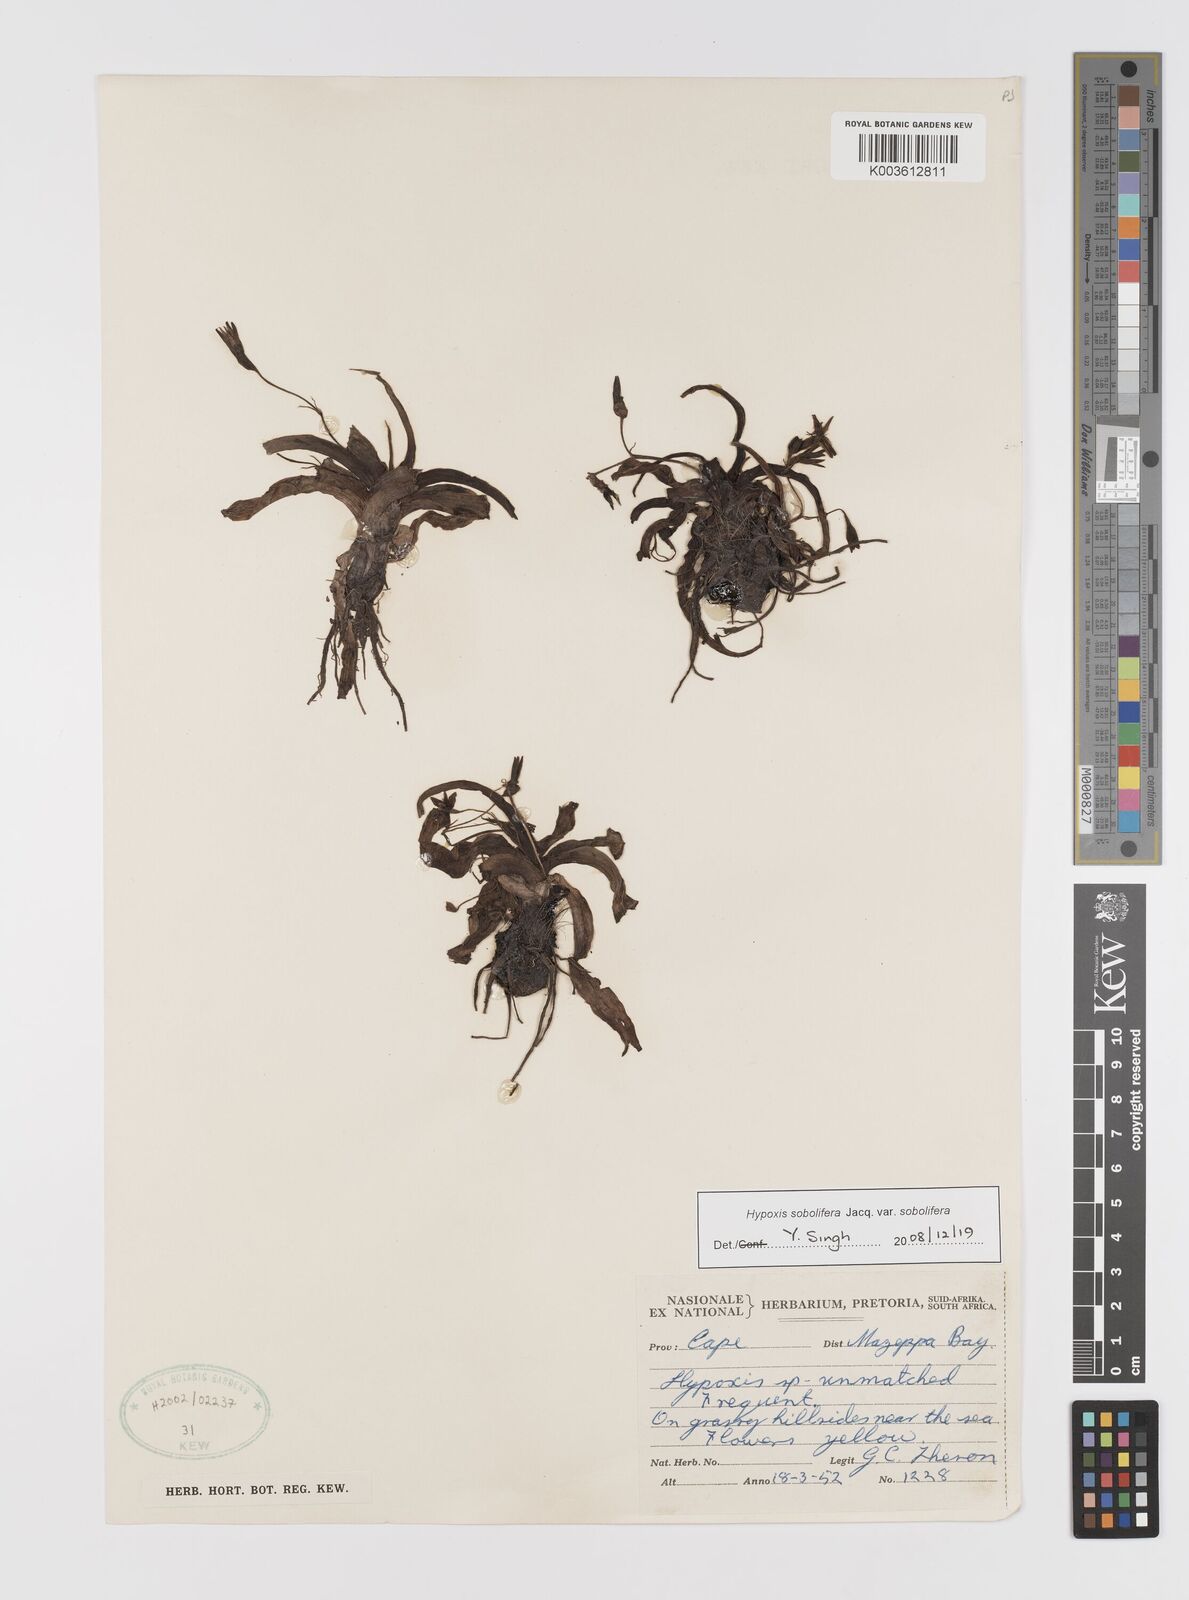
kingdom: Plantae
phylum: Tracheophyta
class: Liliopsida
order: Asparagales
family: Hypoxidaceae
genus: Hypoxis
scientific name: Hypoxis sobolifera
